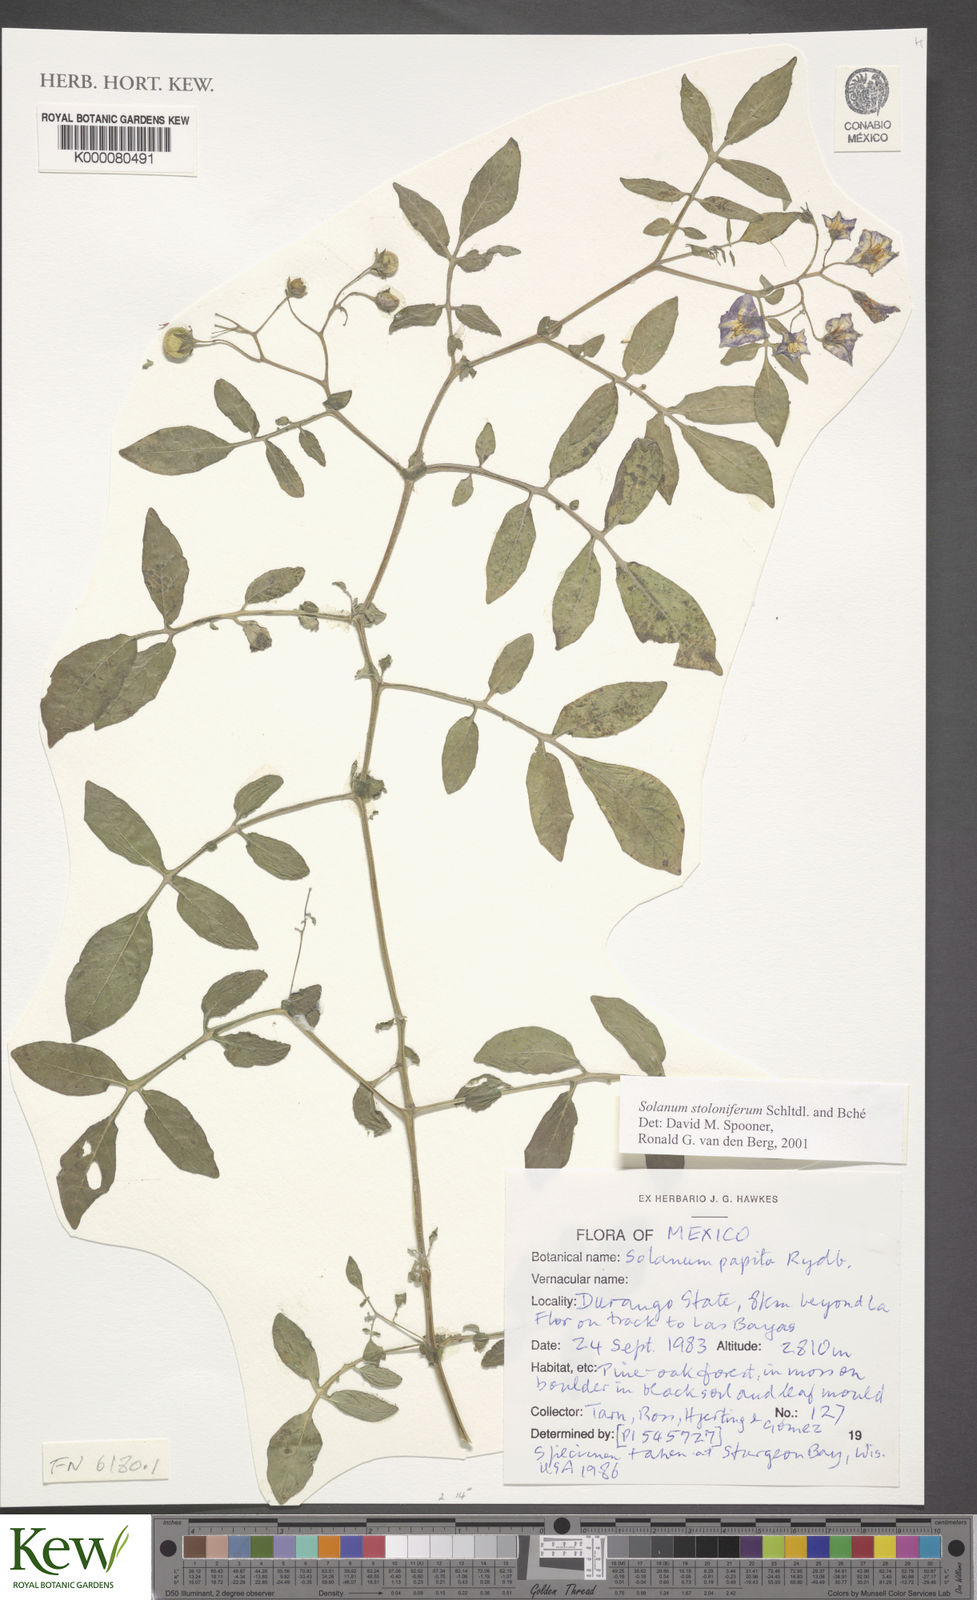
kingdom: Plantae
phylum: Tracheophyta
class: Magnoliopsida
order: Solanales
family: Solanaceae
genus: Solanum
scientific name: Solanum stoloniferum
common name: Fendler's nighshade
